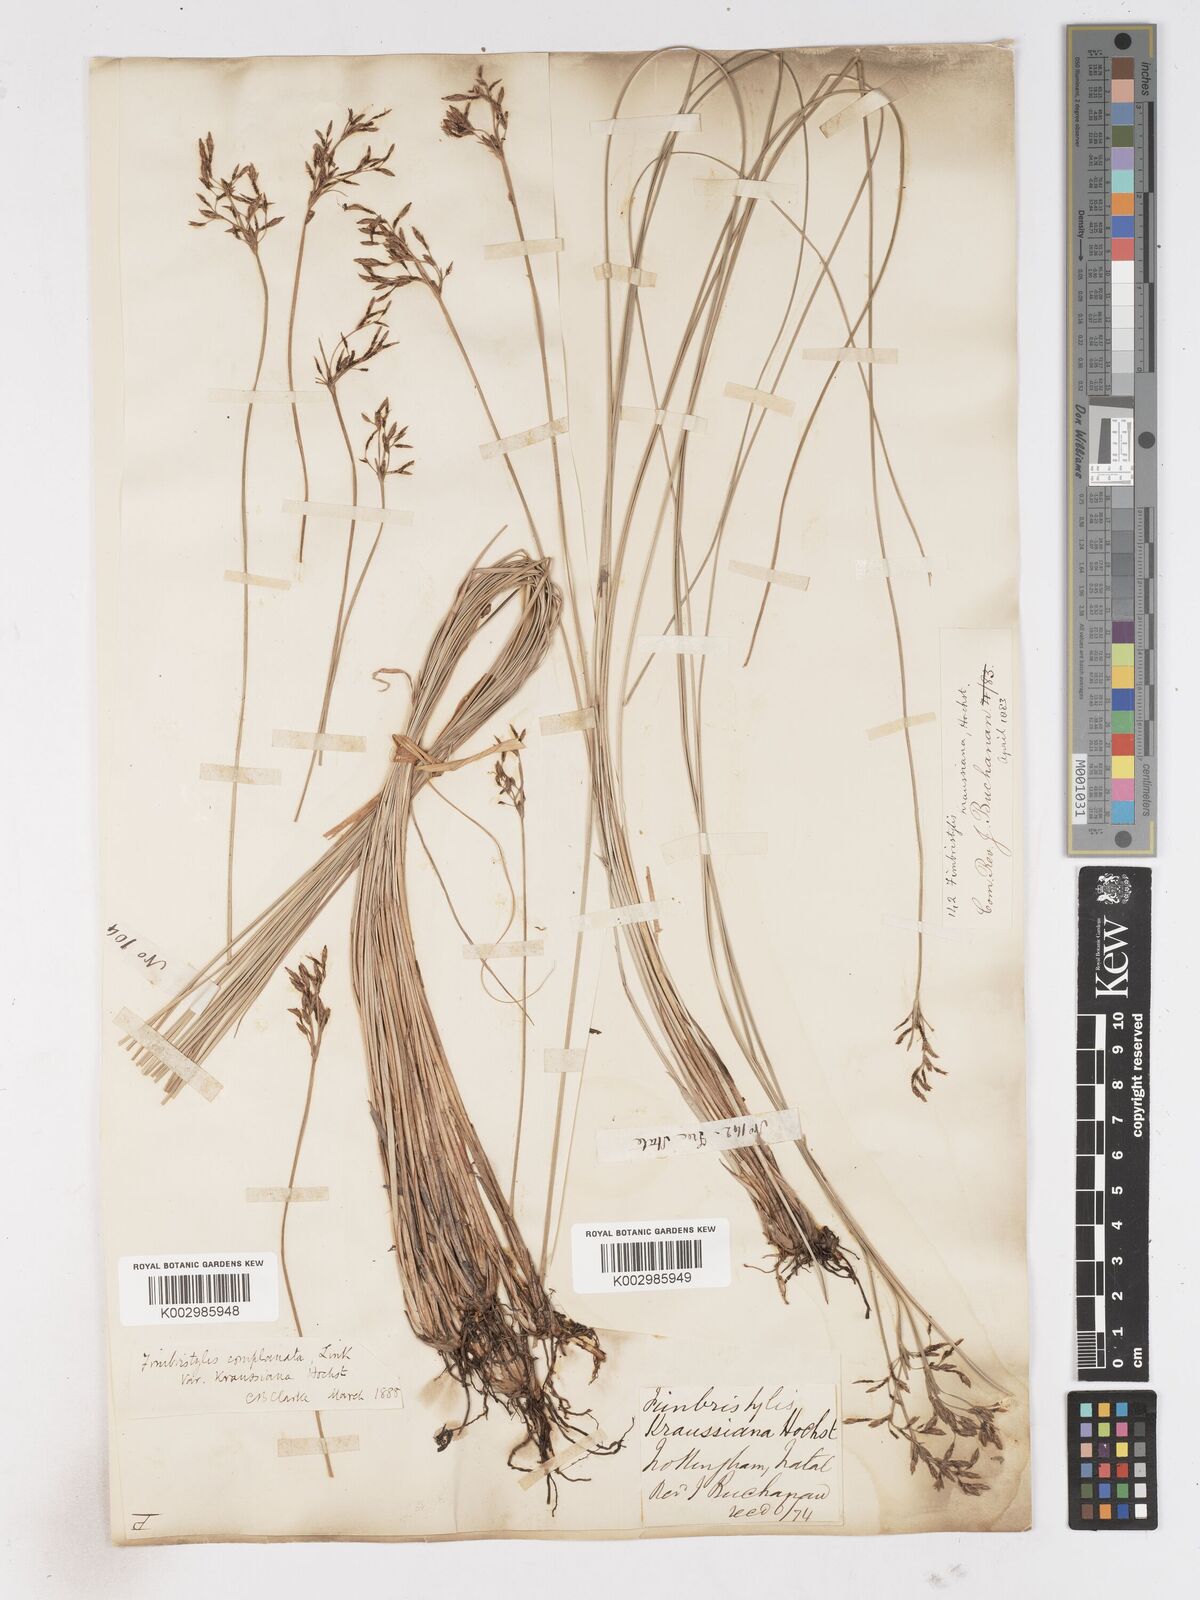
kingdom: Plantae
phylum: Tracheophyta
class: Liliopsida
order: Poales
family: Cyperaceae
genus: Fimbristylis
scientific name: Fimbristylis complanata
